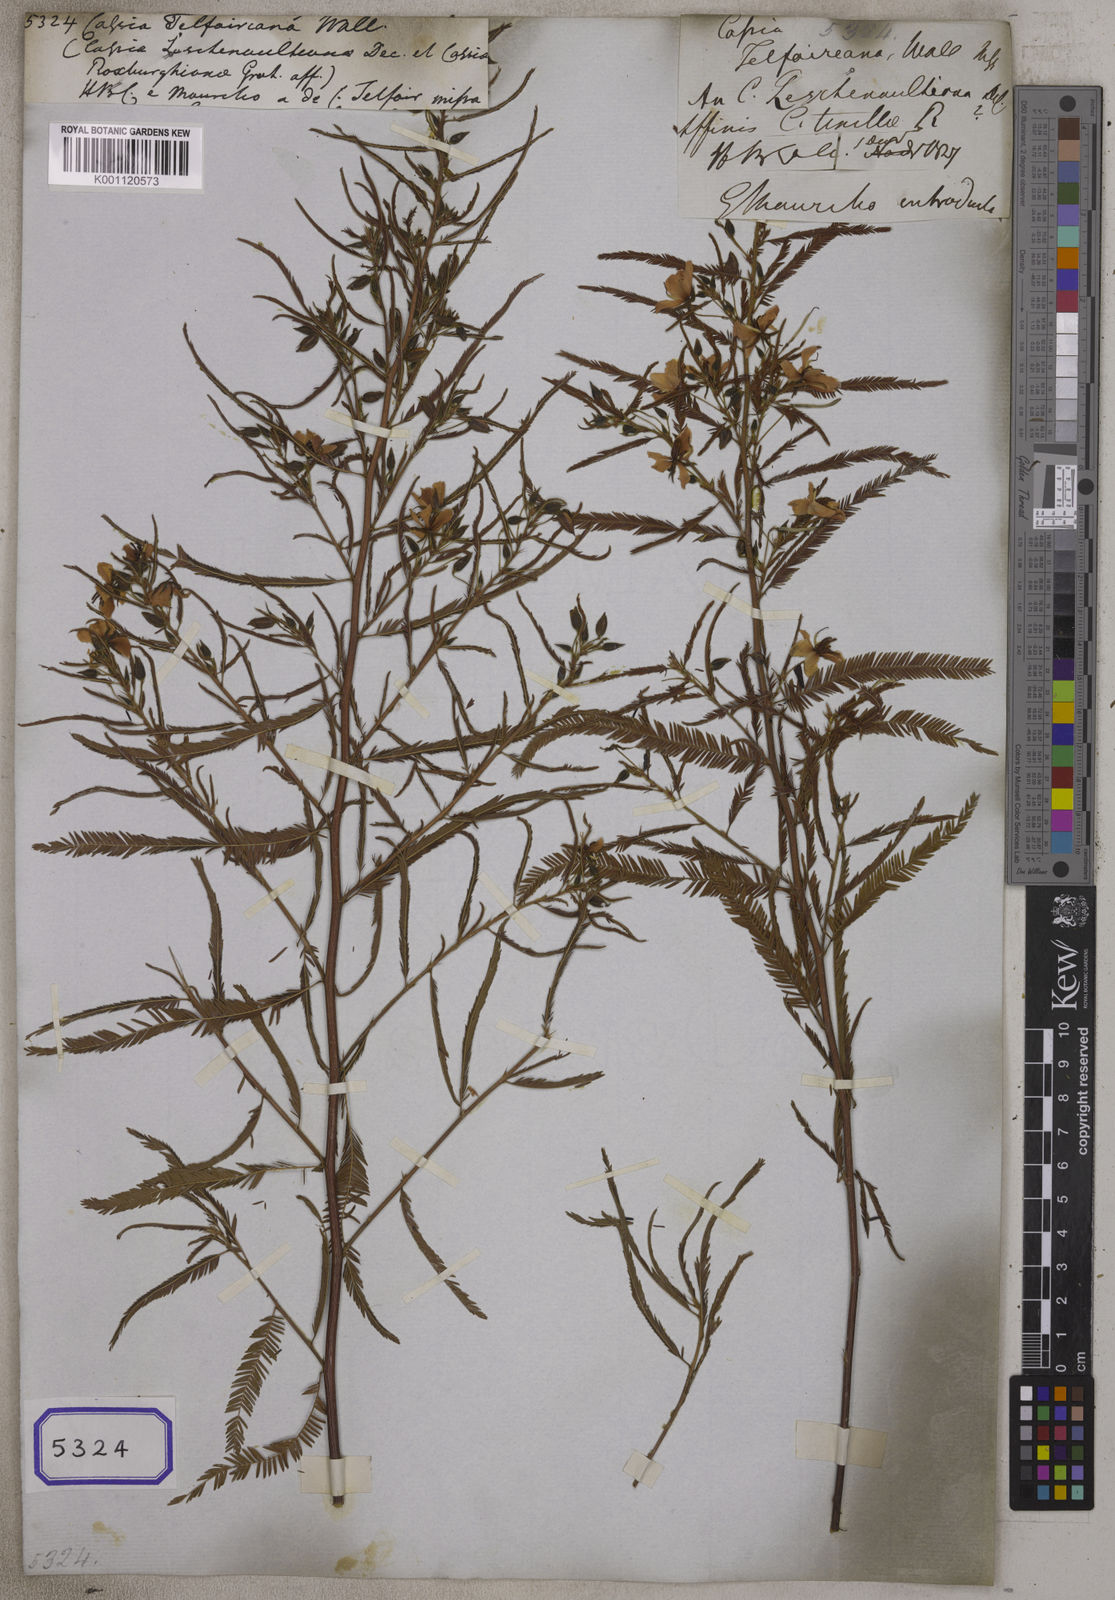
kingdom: Plantae
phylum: Tracheophyta
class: Magnoliopsida
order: Fabales
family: Fabaceae
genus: Cassia
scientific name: Cassia
